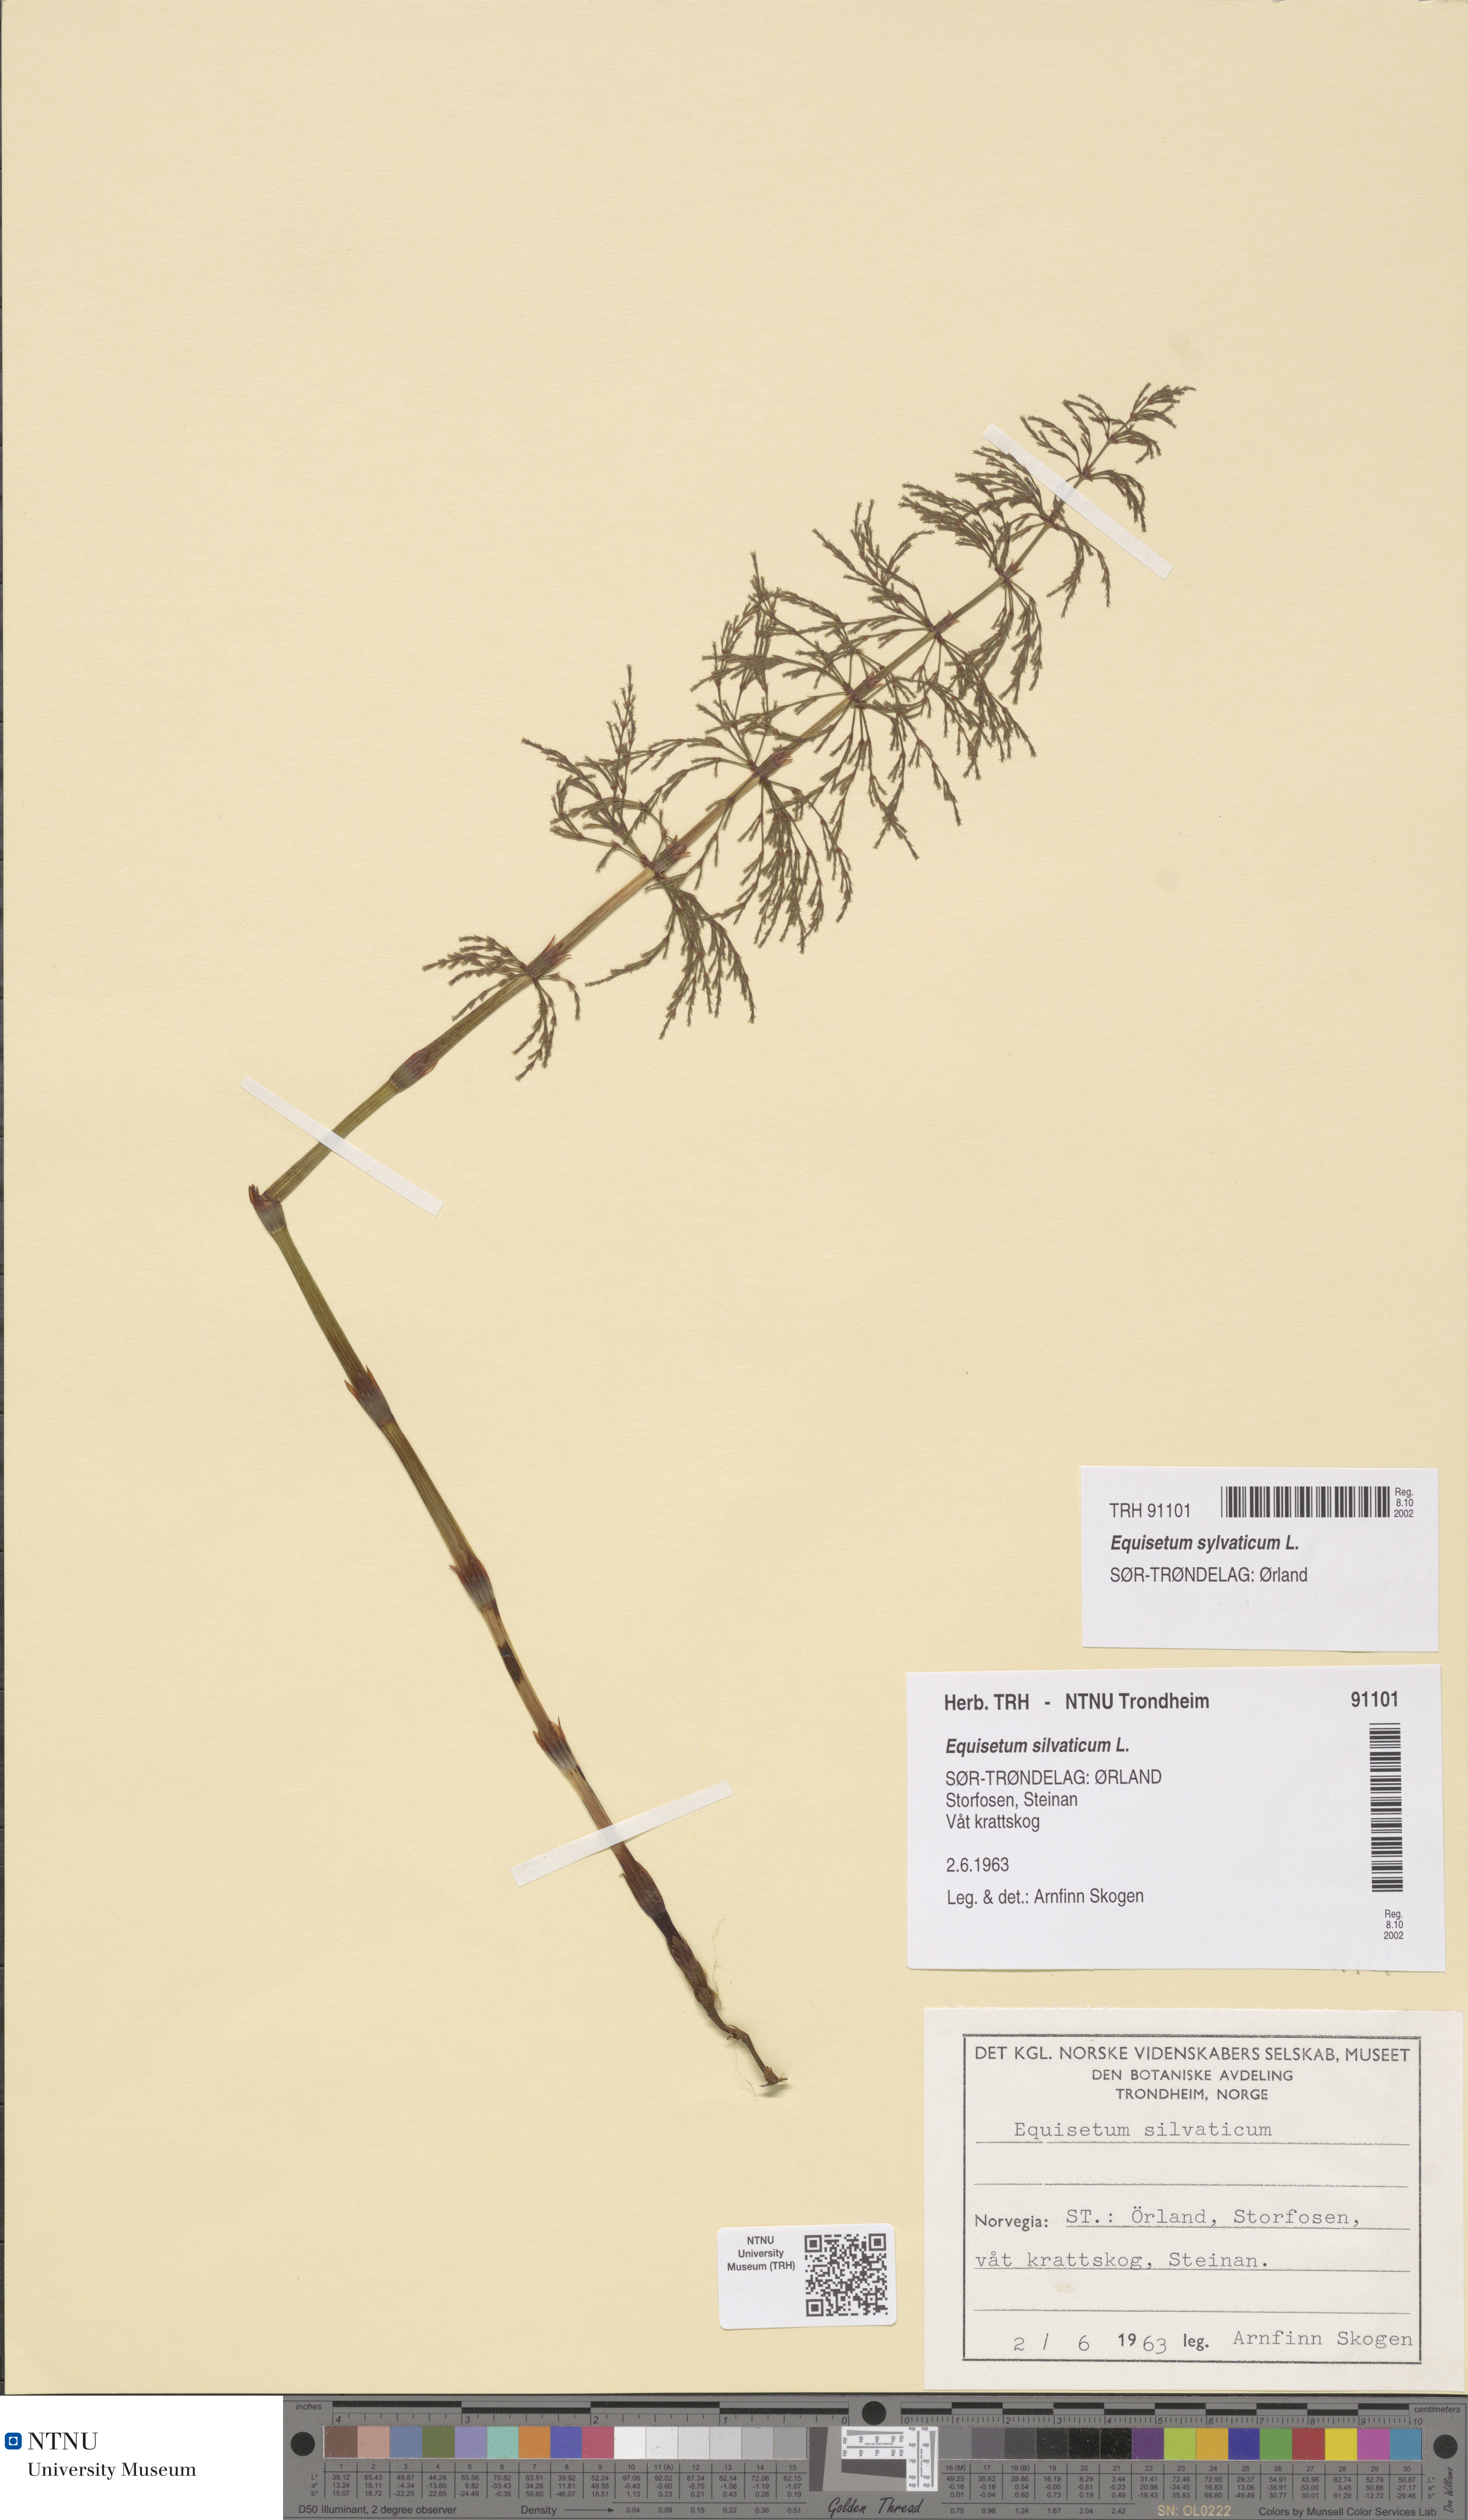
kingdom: Plantae
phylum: Tracheophyta
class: Polypodiopsida
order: Equisetales
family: Equisetaceae
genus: Equisetum
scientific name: Equisetum sylvaticum
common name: Wood horsetail
